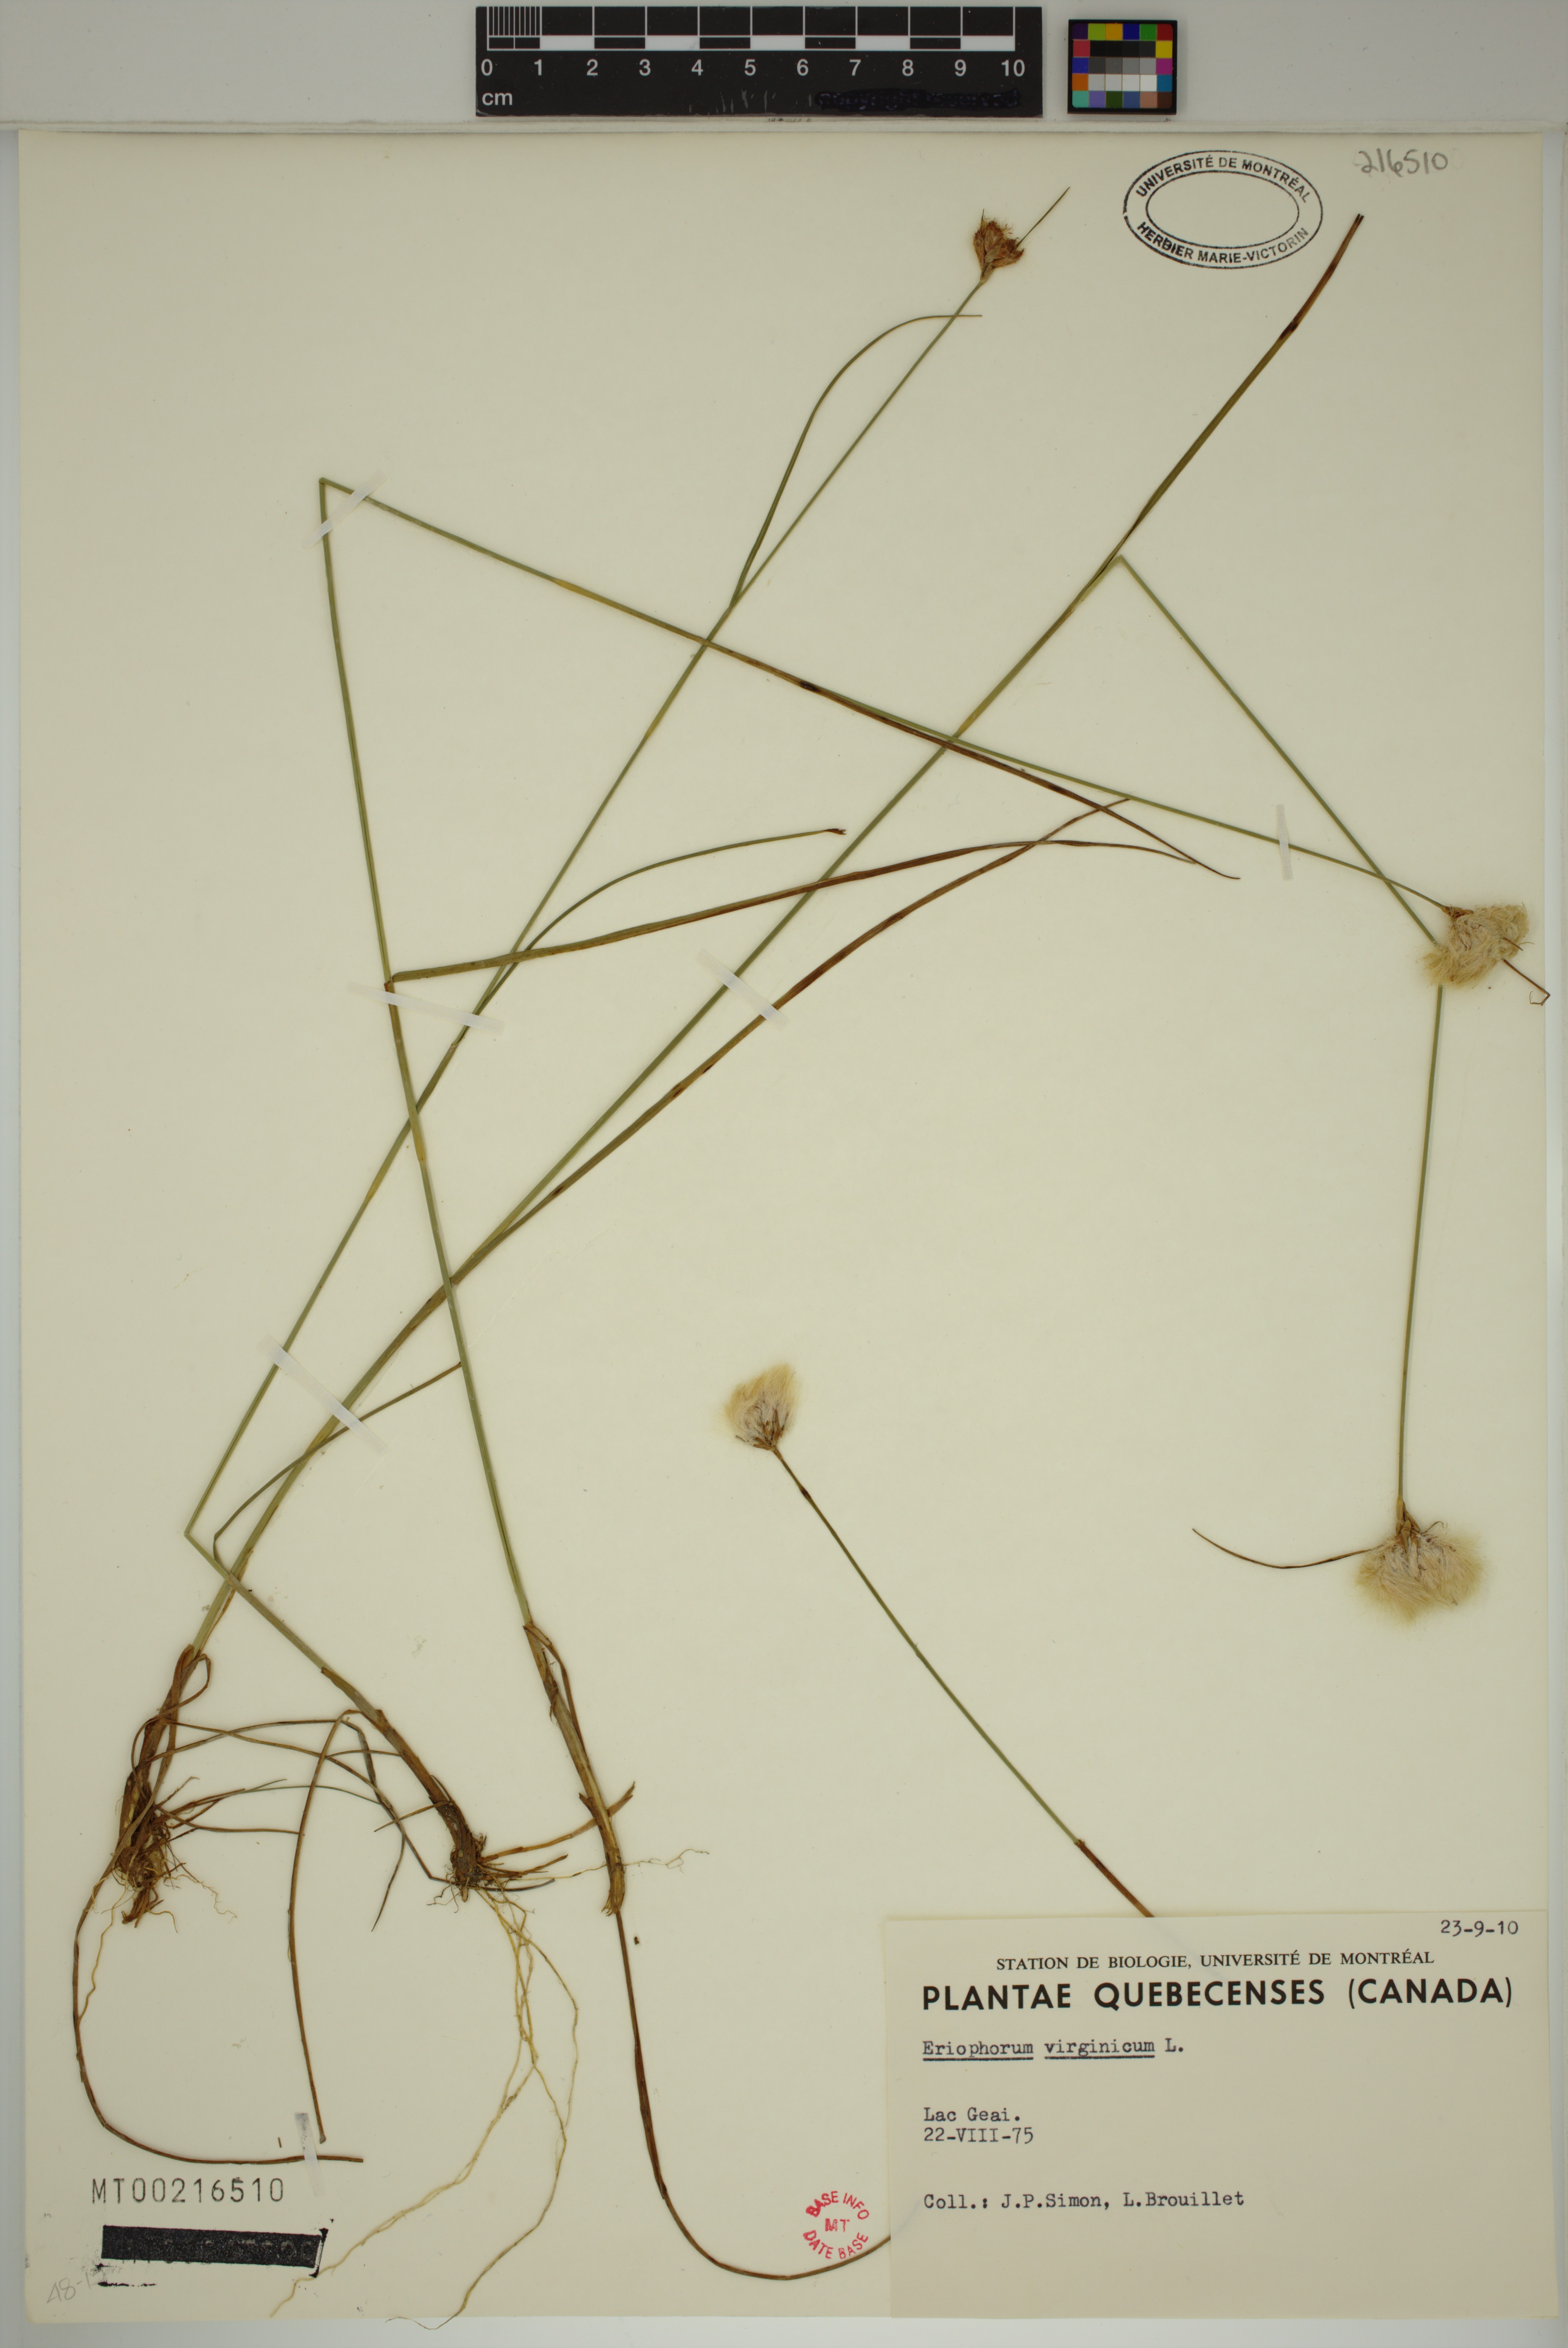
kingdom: Plantae
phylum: Tracheophyta
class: Liliopsida
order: Poales
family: Cyperaceae
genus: Eriophorum
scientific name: Eriophorum virginicum
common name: Tawny cottongrass
